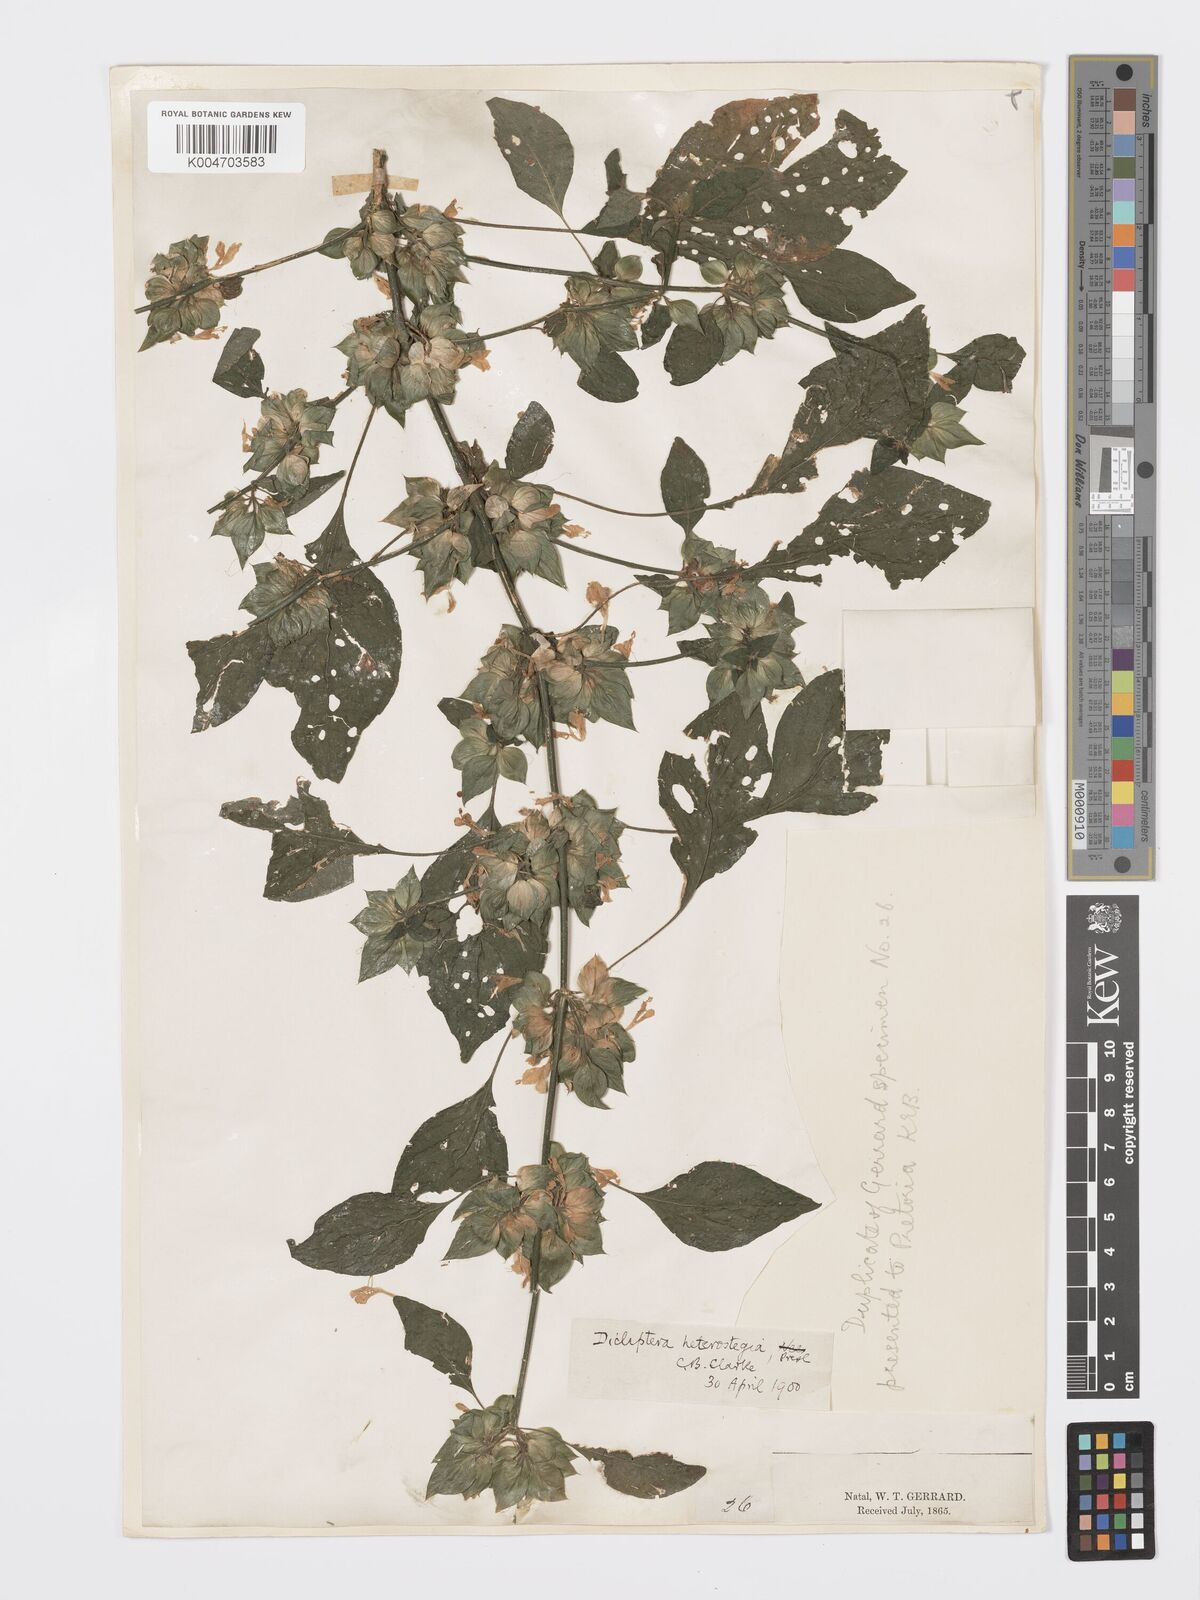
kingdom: Plantae
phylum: Tracheophyta
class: Magnoliopsida
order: Lamiales
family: Acanthaceae
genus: Dicliptera
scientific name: Dicliptera heterostegia
